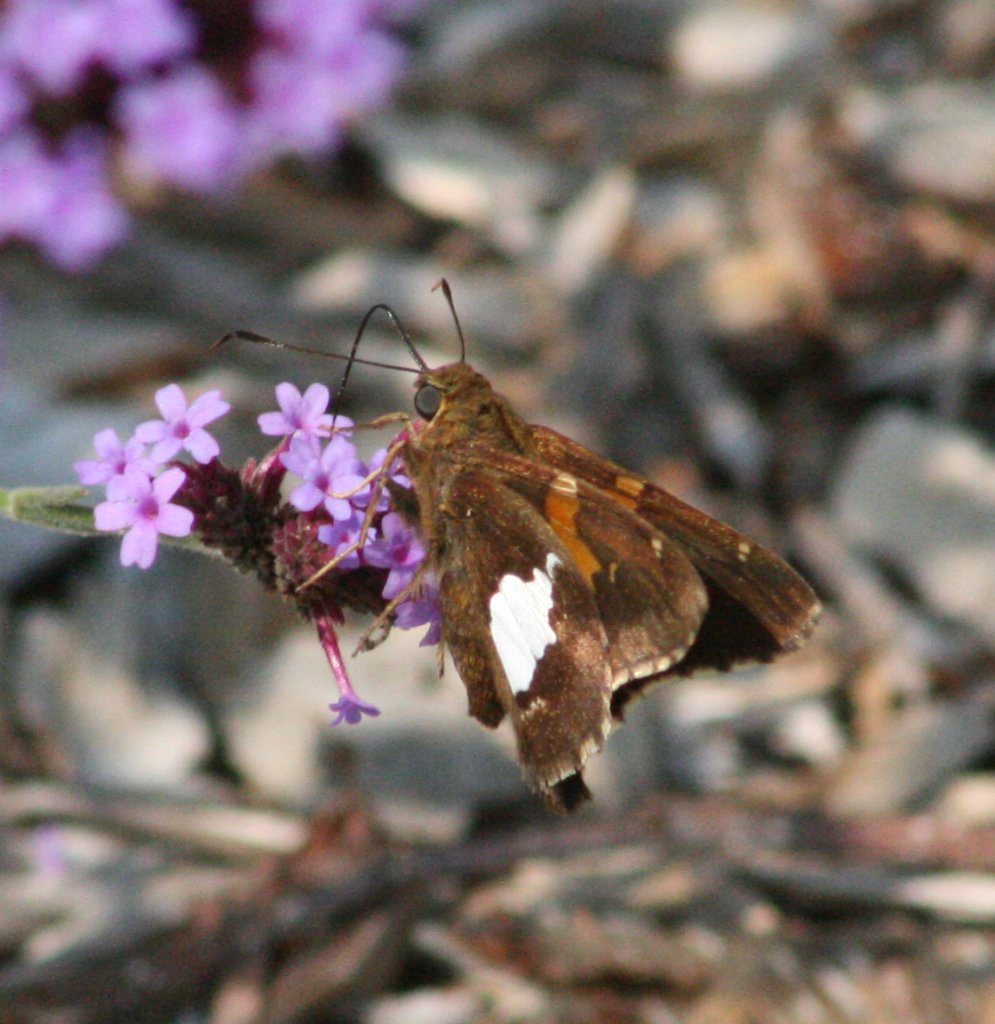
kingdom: Animalia
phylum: Arthropoda
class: Insecta
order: Lepidoptera
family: Hesperiidae
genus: Epargyreus
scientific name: Epargyreus clarus
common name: Silver-spotted Skipper
